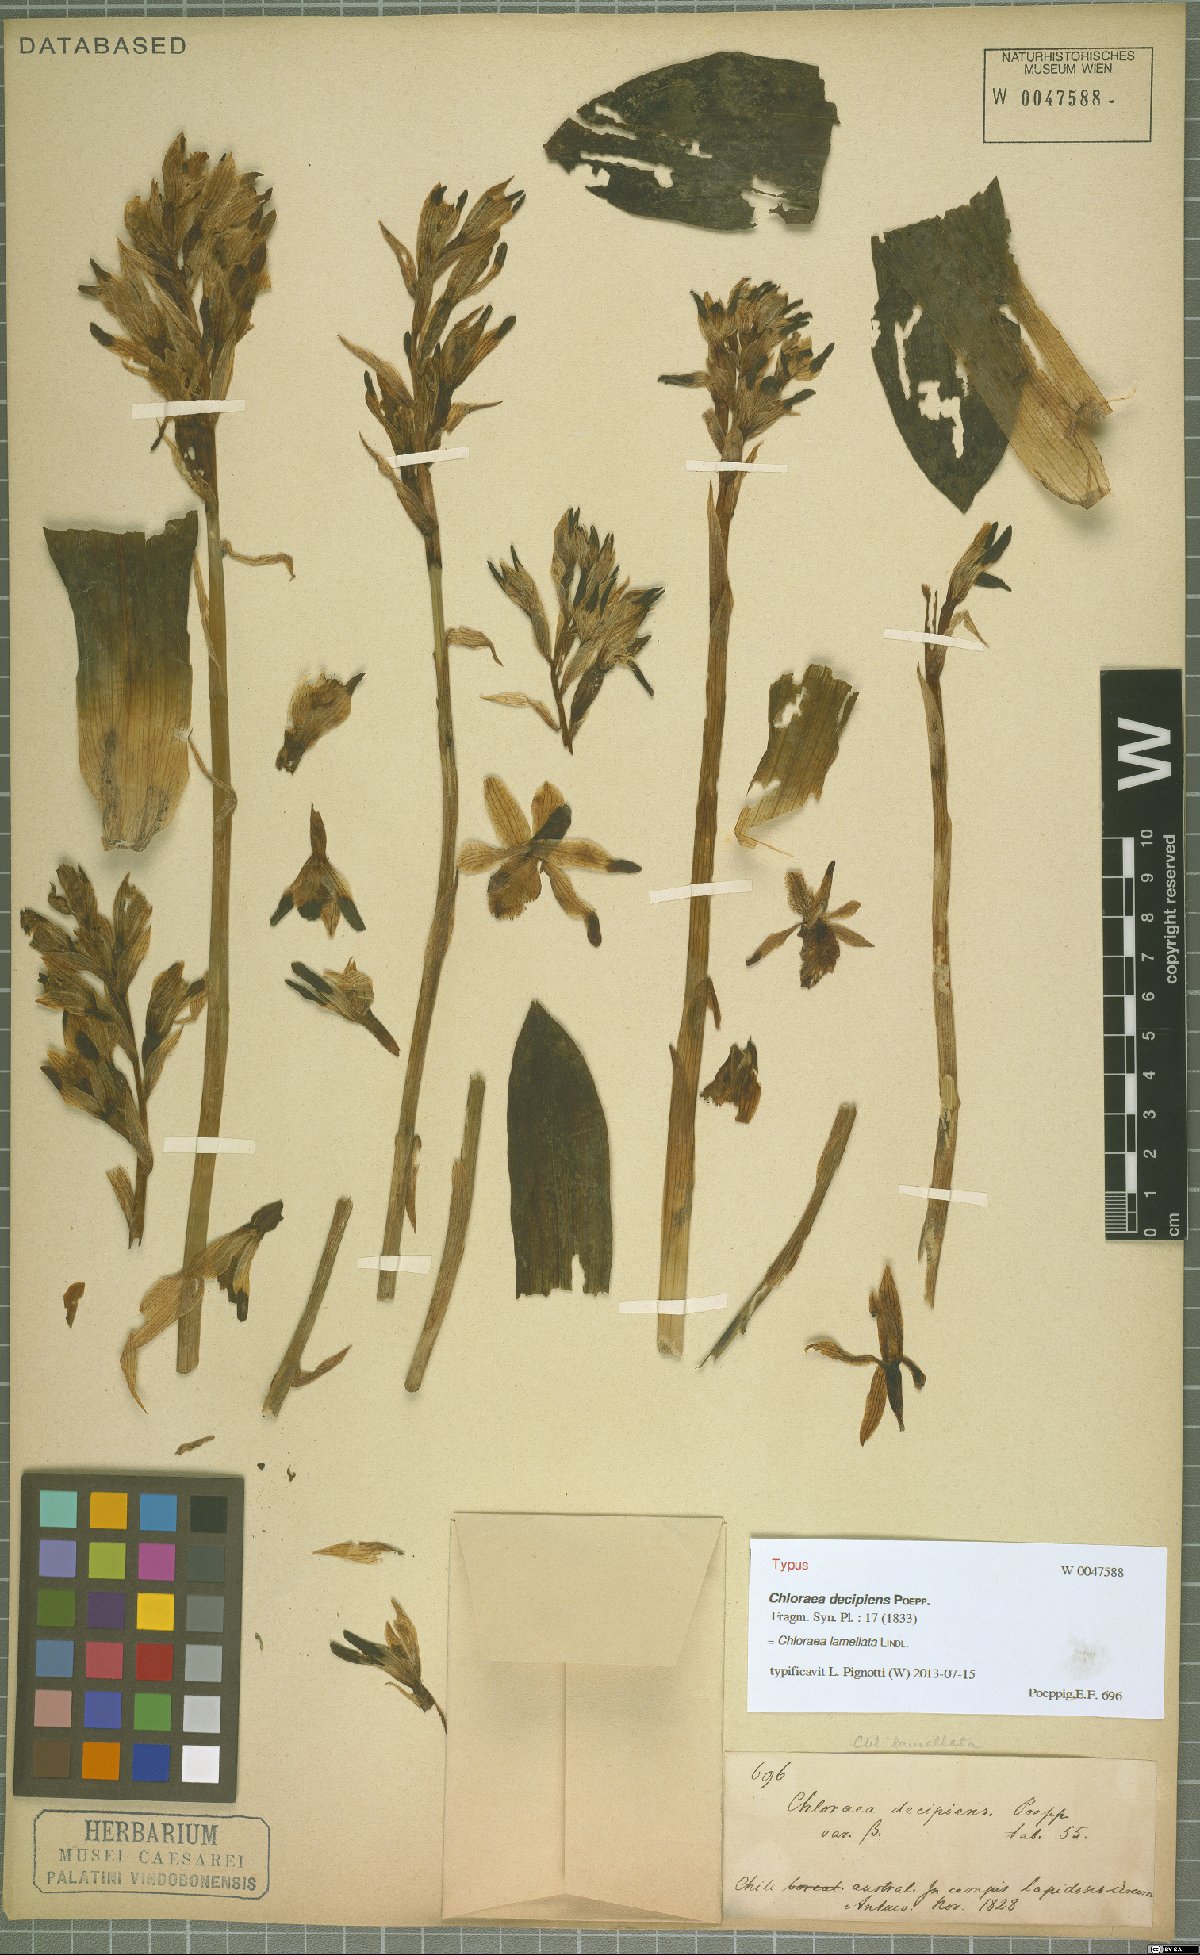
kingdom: Plantae
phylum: Tracheophyta
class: Liliopsida
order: Asparagales
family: Orchidaceae
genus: Chloraea
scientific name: Chloraea lamellata
